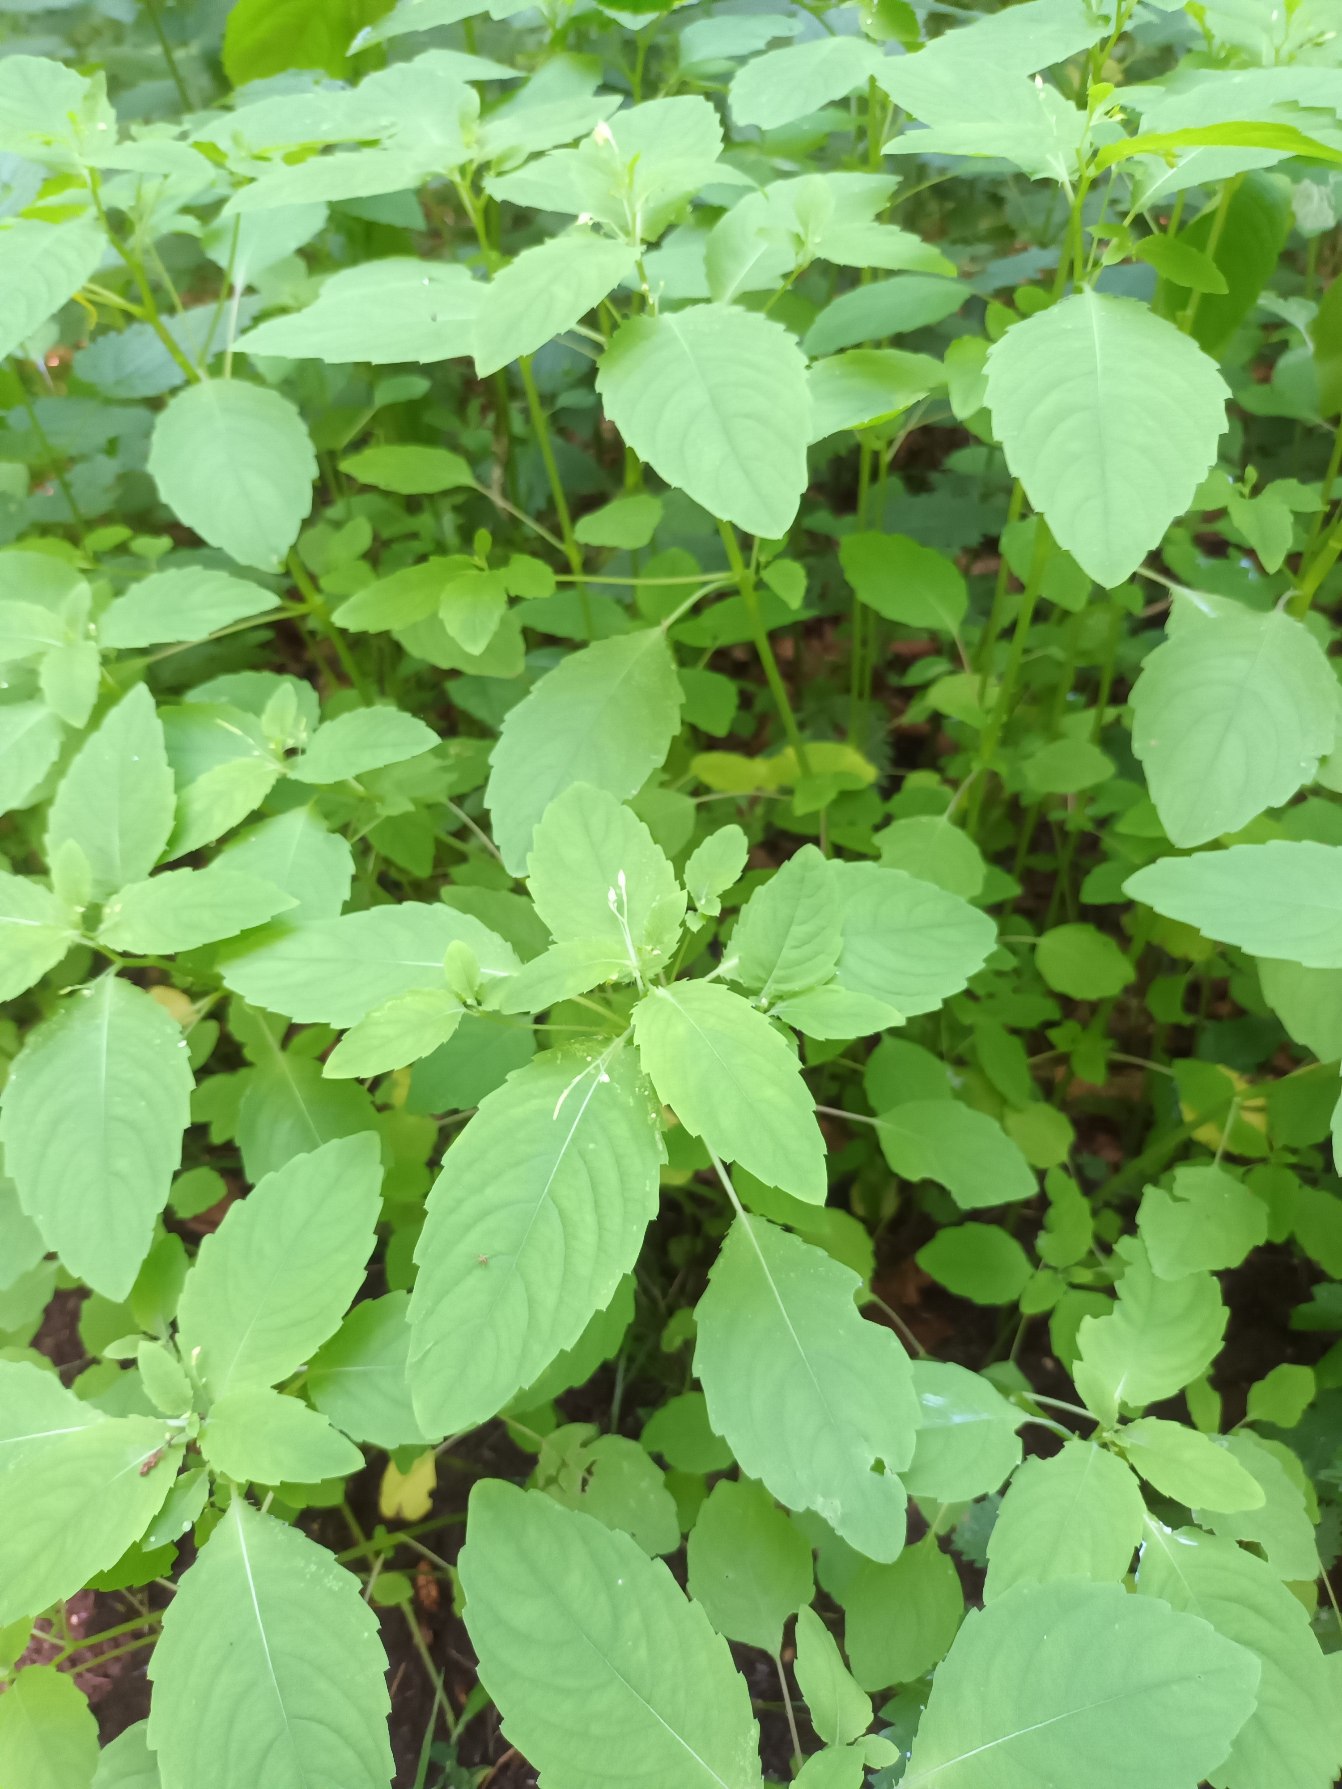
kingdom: Plantae
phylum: Tracheophyta
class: Magnoliopsida
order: Ericales
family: Balsaminaceae
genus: Impatiens
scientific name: Impatiens noli-tangere
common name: Spring-balsamin
